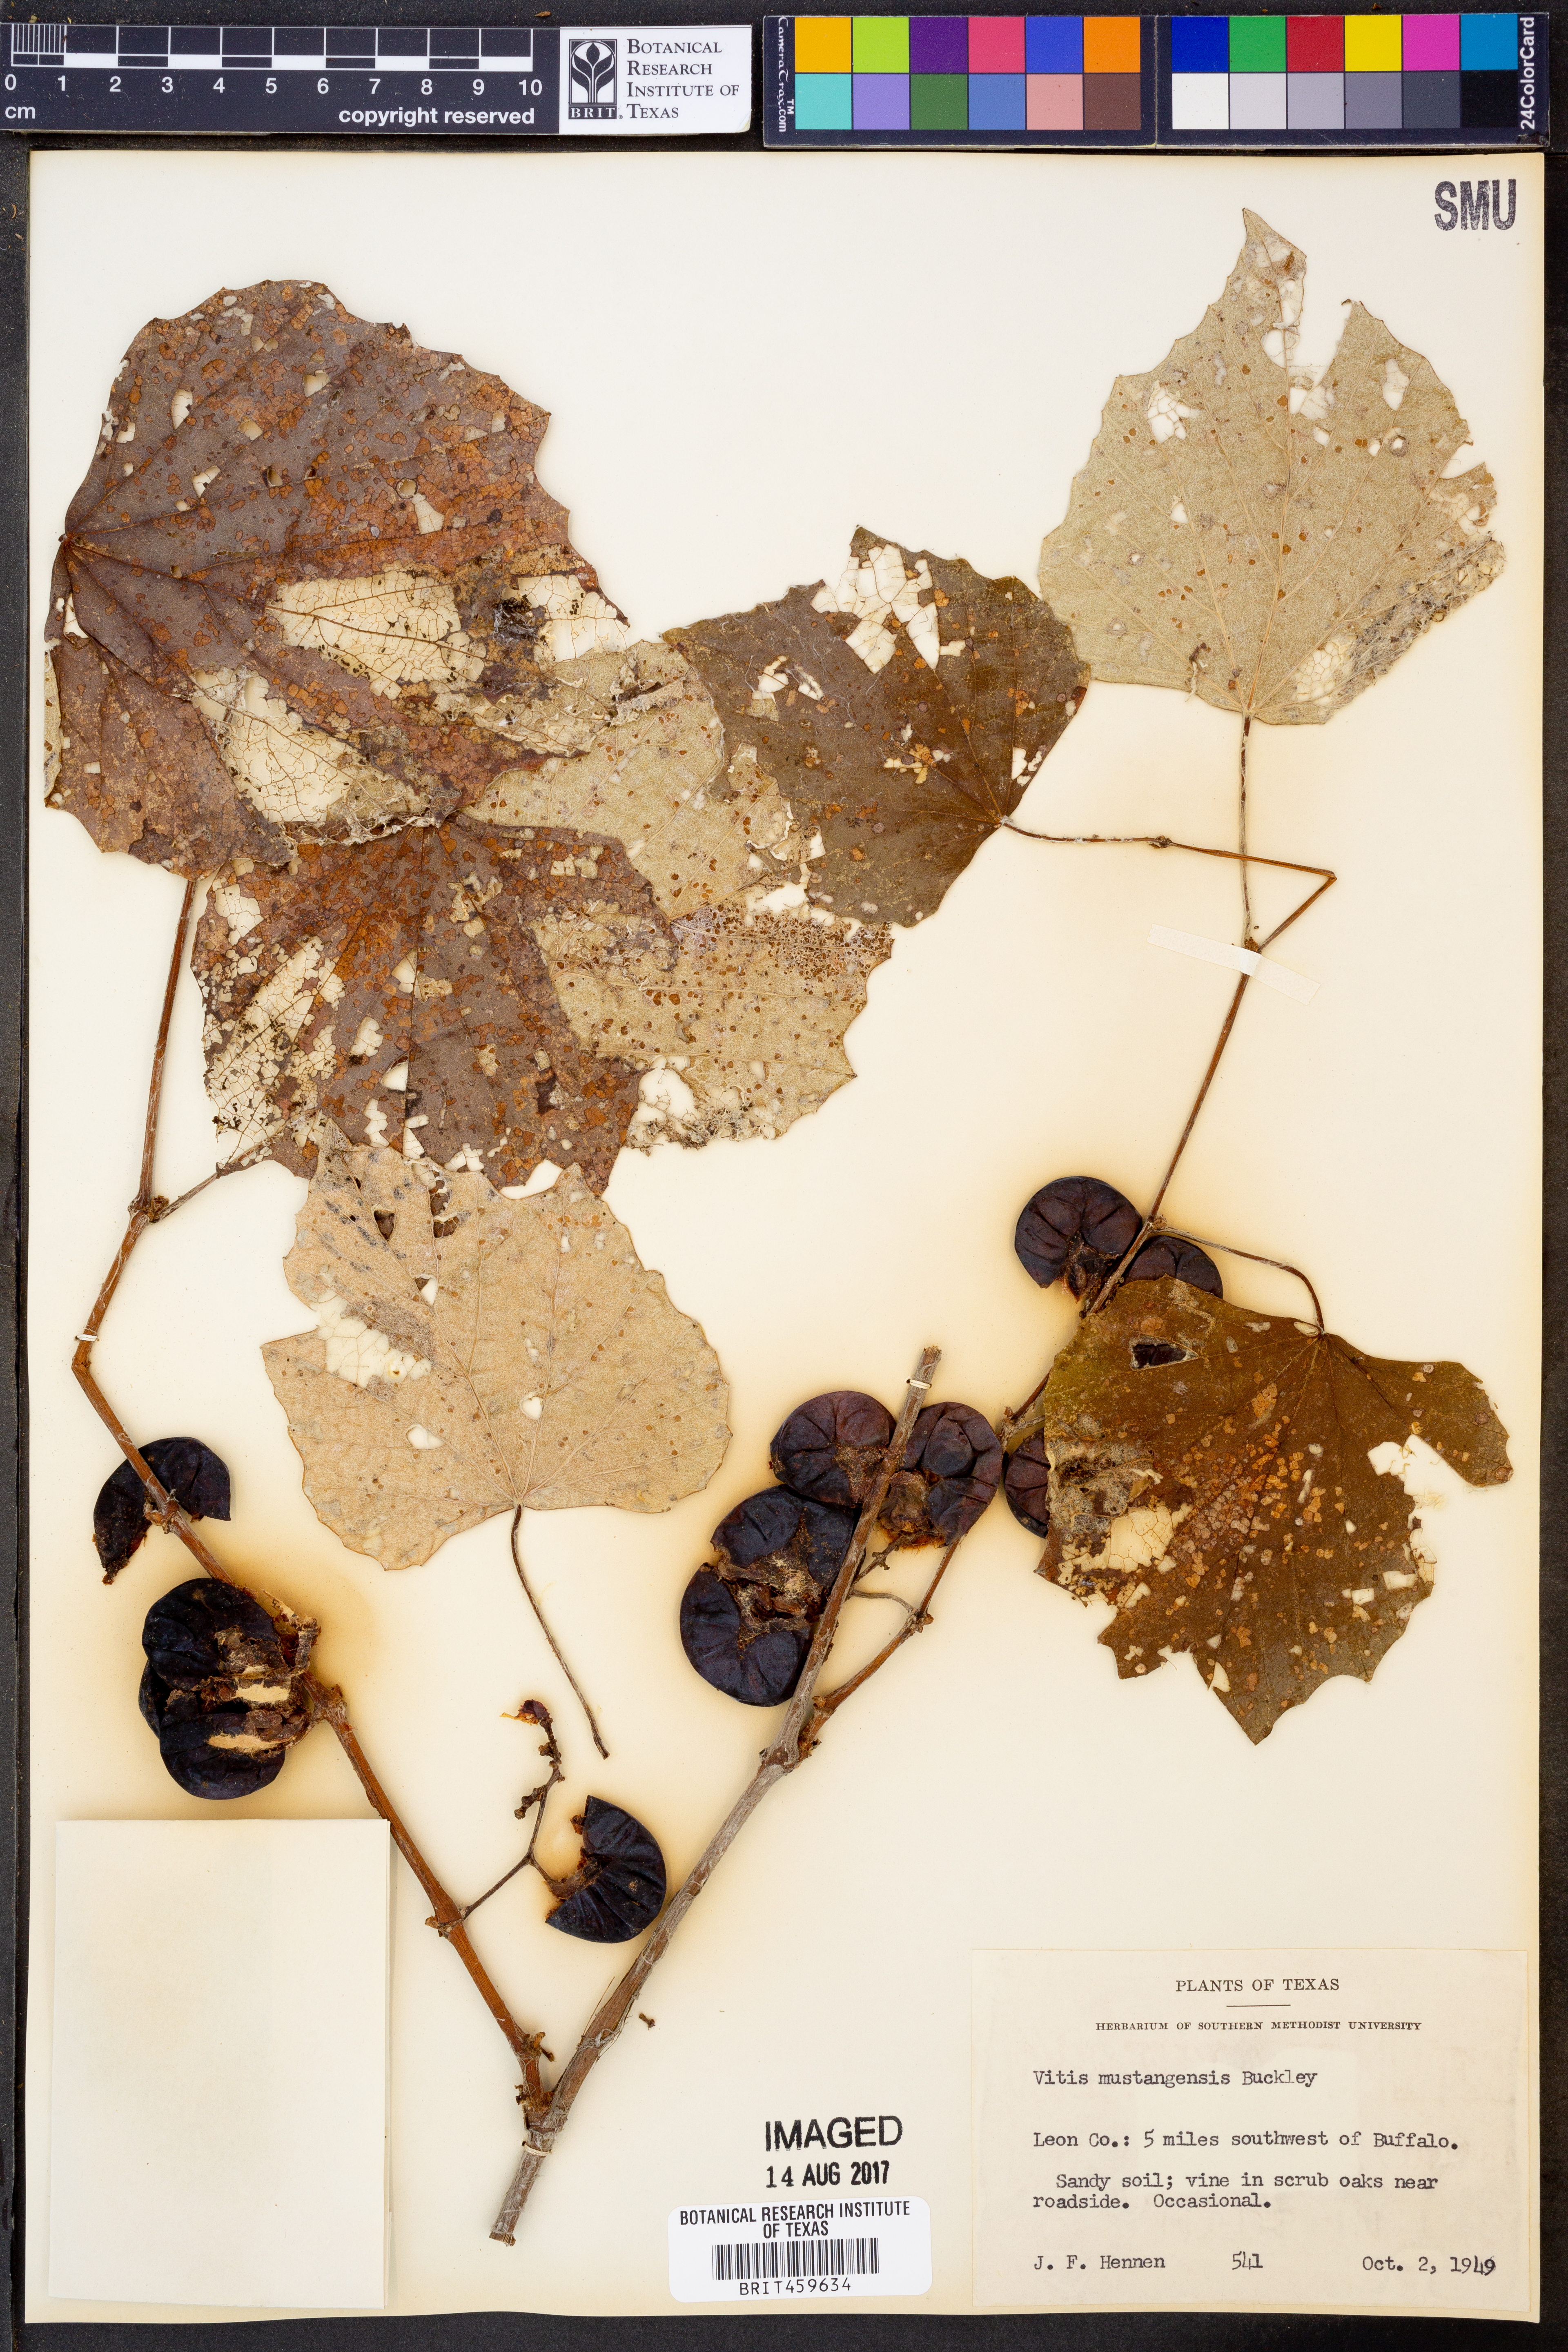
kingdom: Plantae
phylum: Tracheophyta
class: Magnoliopsida
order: Vitales
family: Vitaceae
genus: Vitis
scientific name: Vitis mustangensis
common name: Mustang grape
